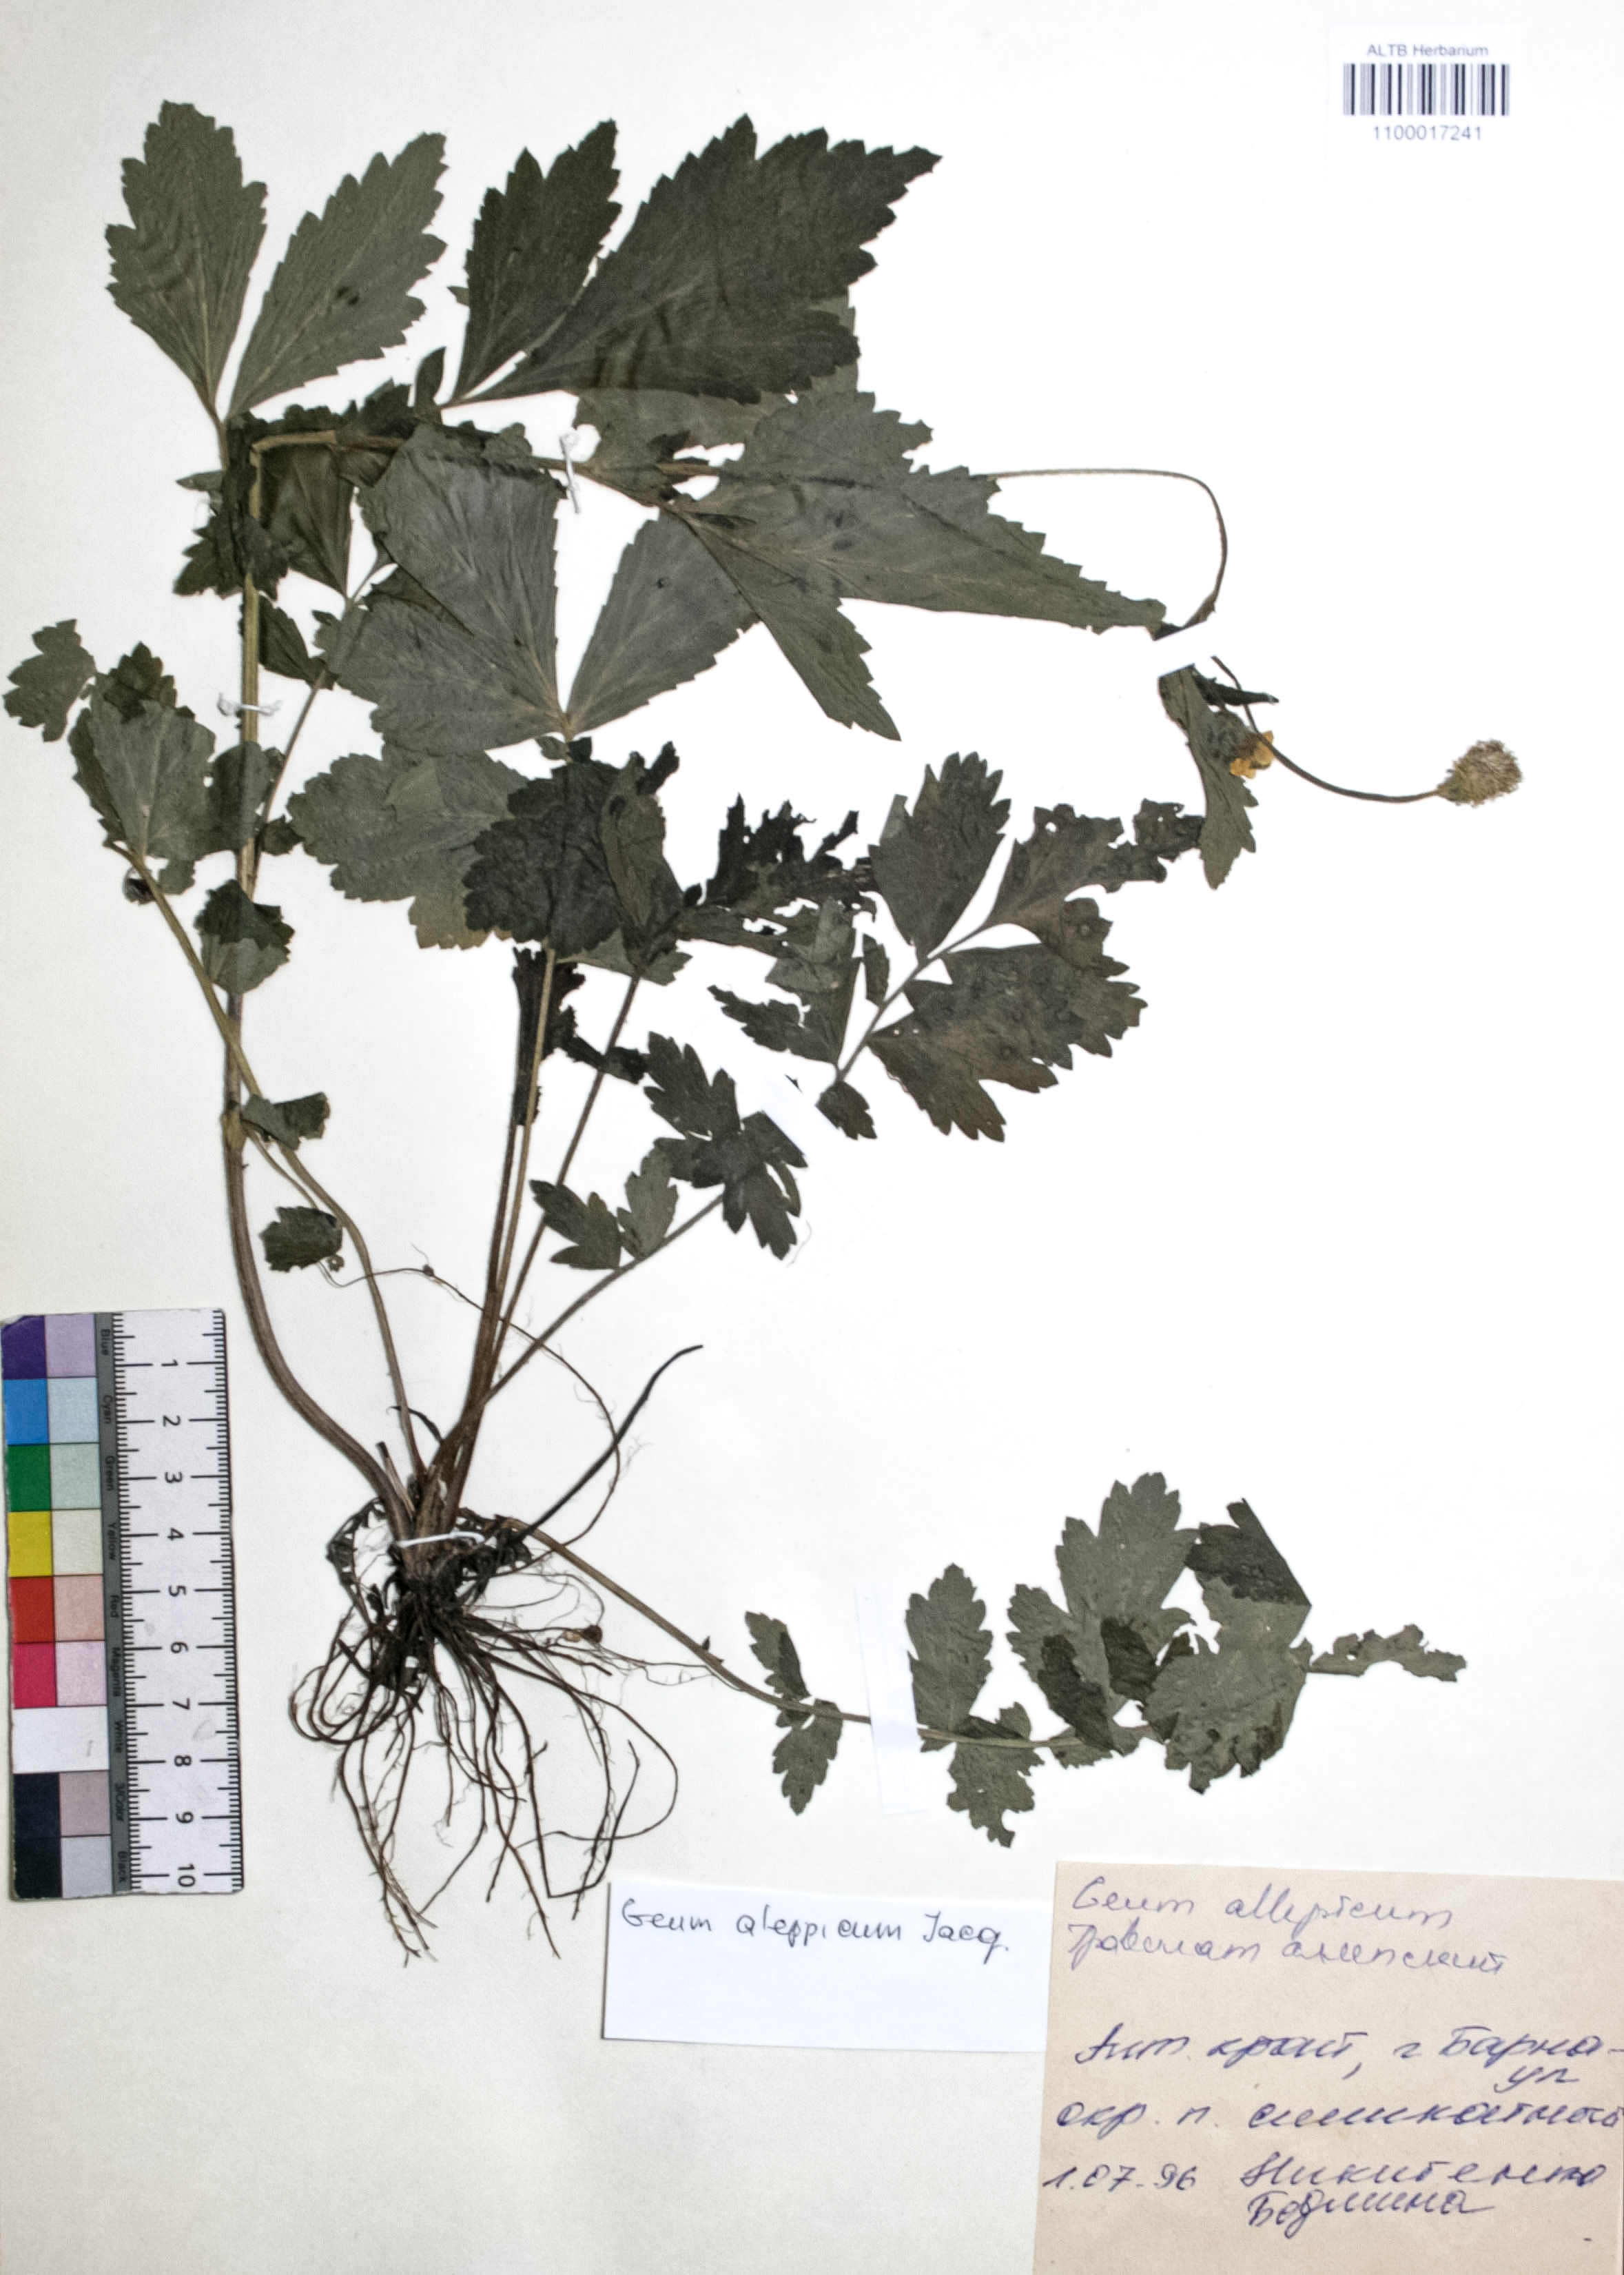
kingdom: Plantae
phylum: Tracheophyta
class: Magnoliopsida
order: Rosales
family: Rosaceae
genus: Geum
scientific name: Geum aleppicum
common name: Yellow avens
